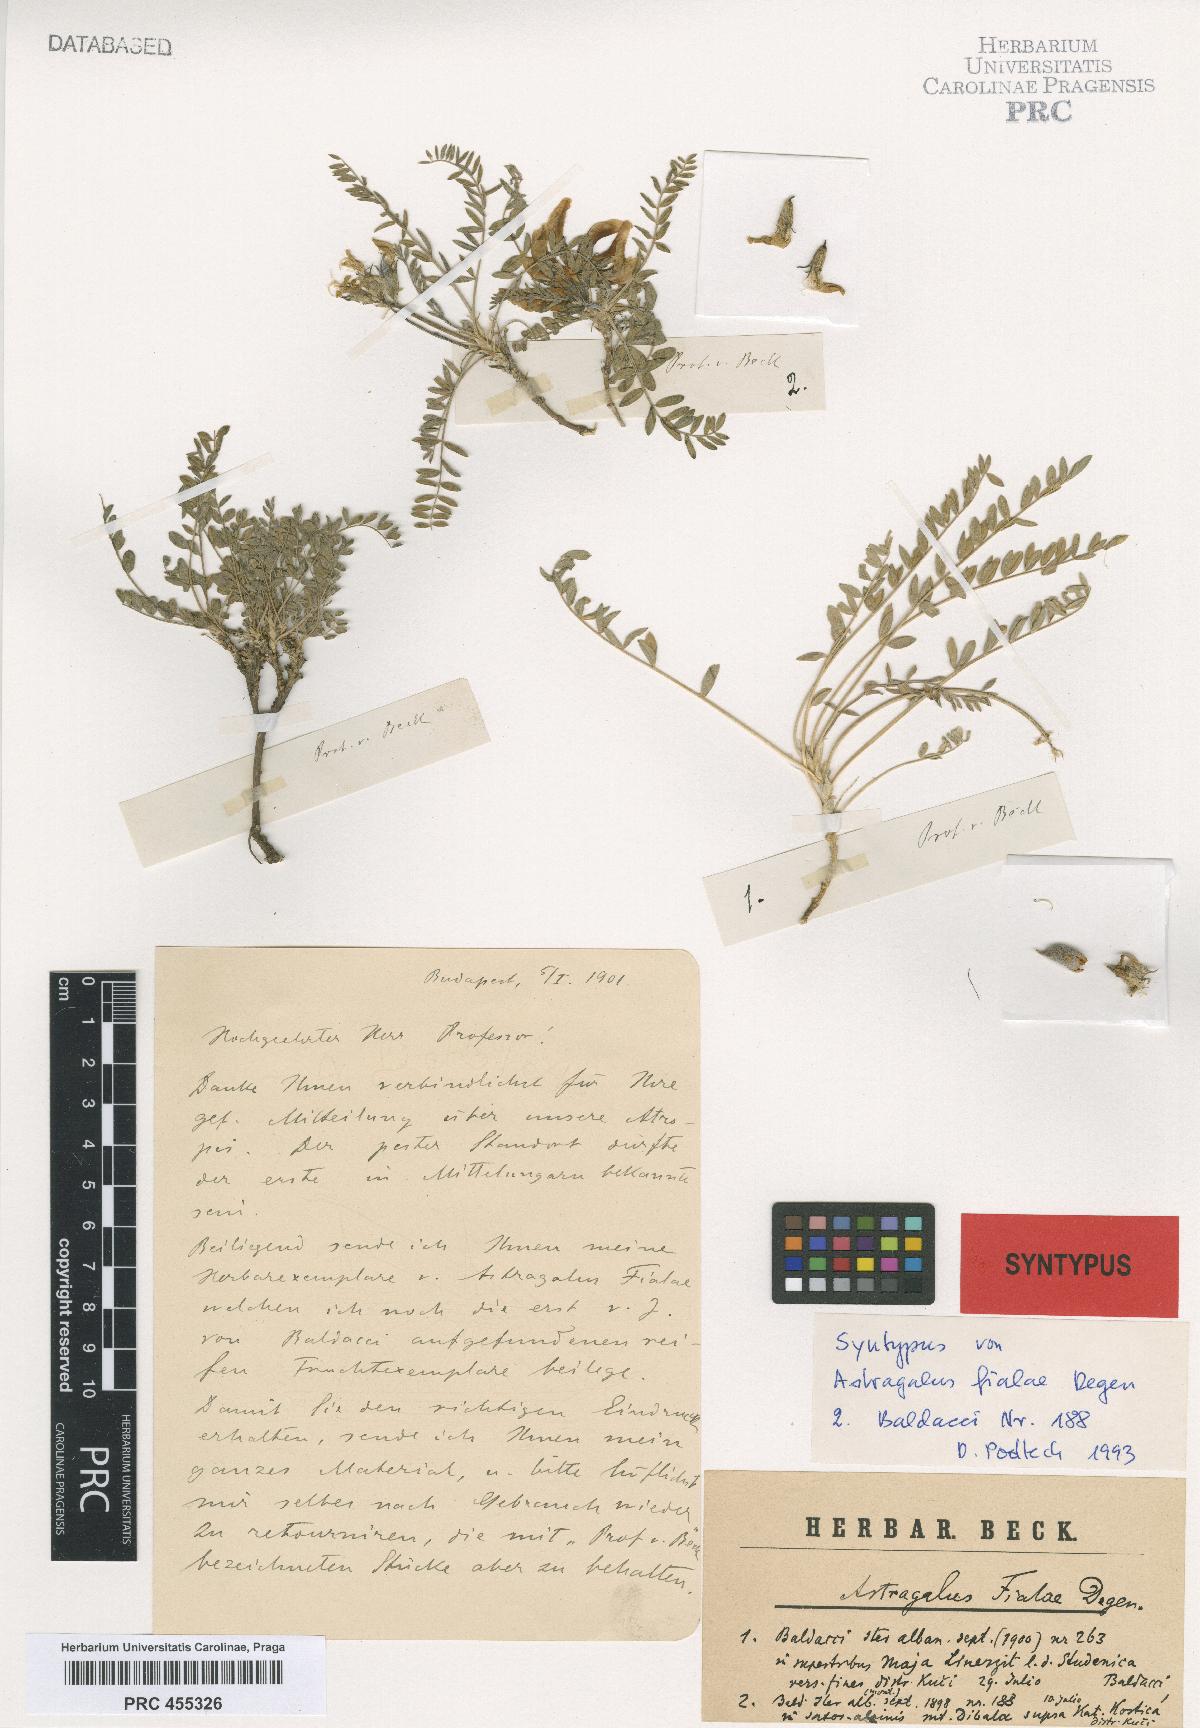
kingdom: Plantae
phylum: Tracheophyta
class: Magnoliopsida
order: Fabales
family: Fabaceae
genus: Astragalus
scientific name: Astragalus fialae
